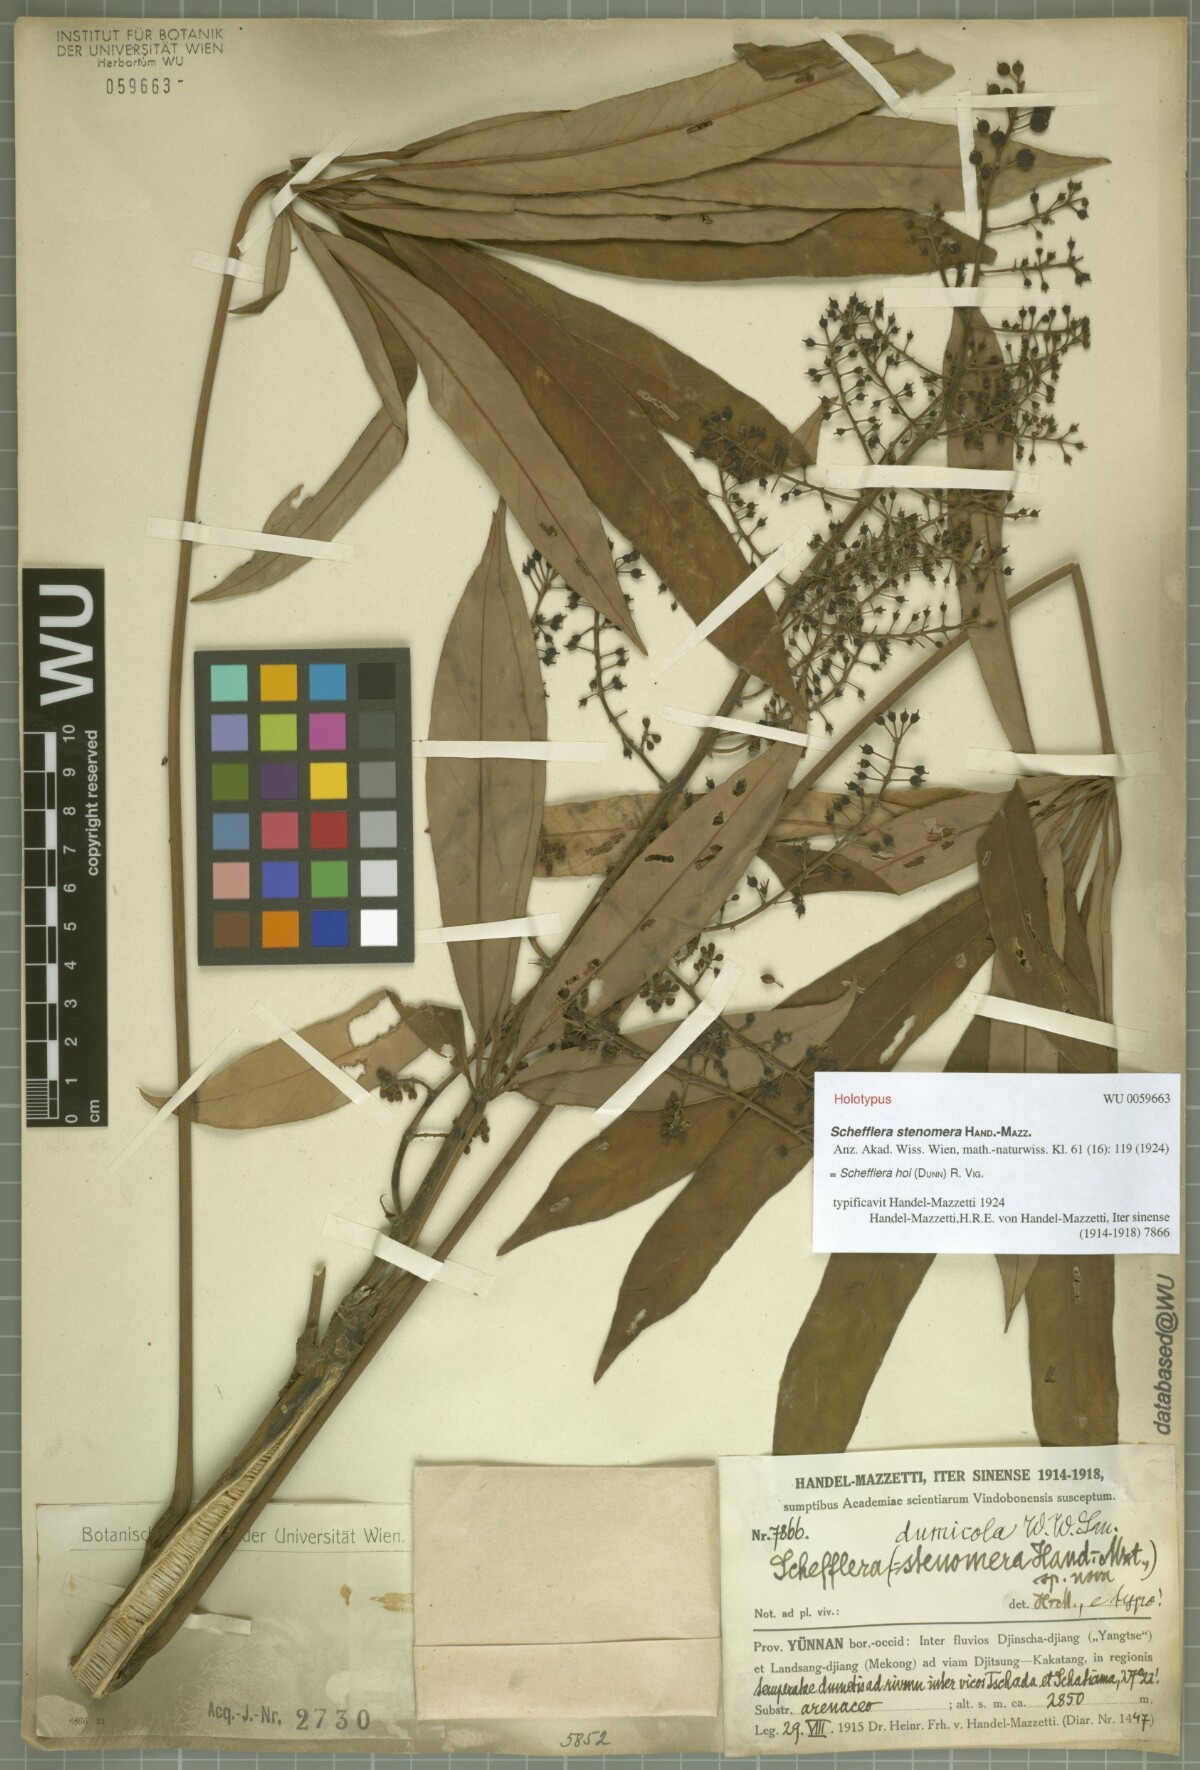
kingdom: Plantae
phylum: Tracheophyta
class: Magnoliopsida
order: Apiales
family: Araliaceae
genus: Heptapleurum
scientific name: Heptapleurum hoi
